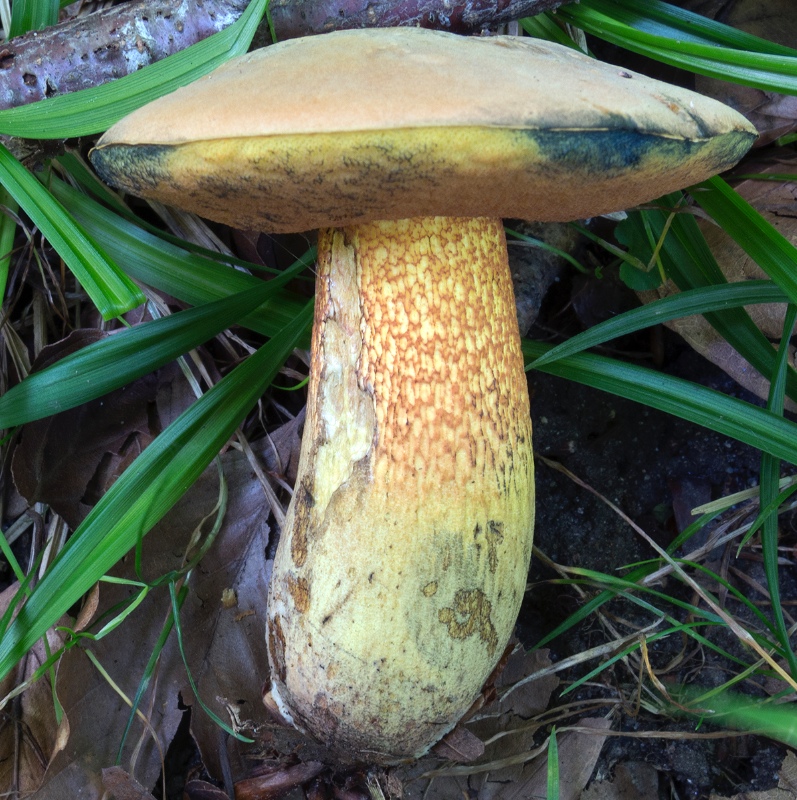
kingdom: Fungi
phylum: Basidiomycota
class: Agaricomycetes
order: Boletales
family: Boletaceae
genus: Suillellus
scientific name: Suillellus luridus
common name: netstokket indigorørhat
